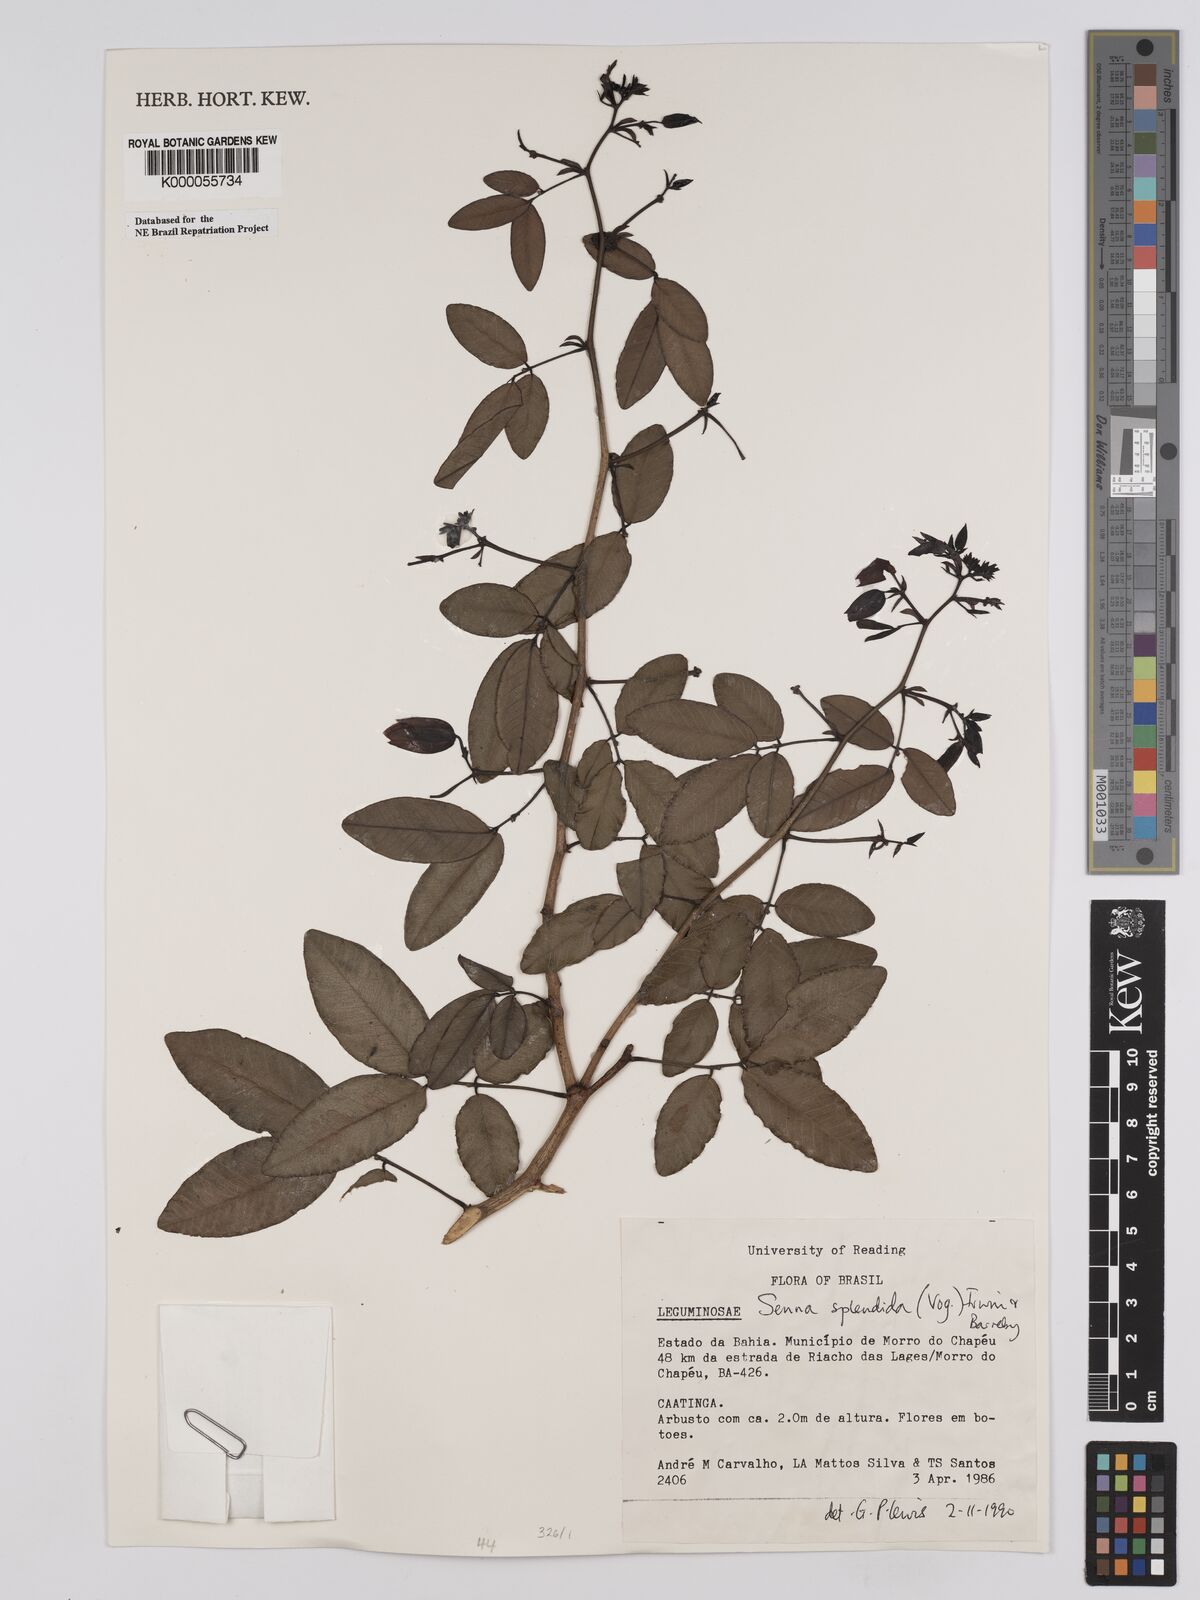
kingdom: Plantae
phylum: Tracheophyta
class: Magnoliopsida
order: Fabales
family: Fabaceae
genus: Senna
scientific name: Senna splendida
